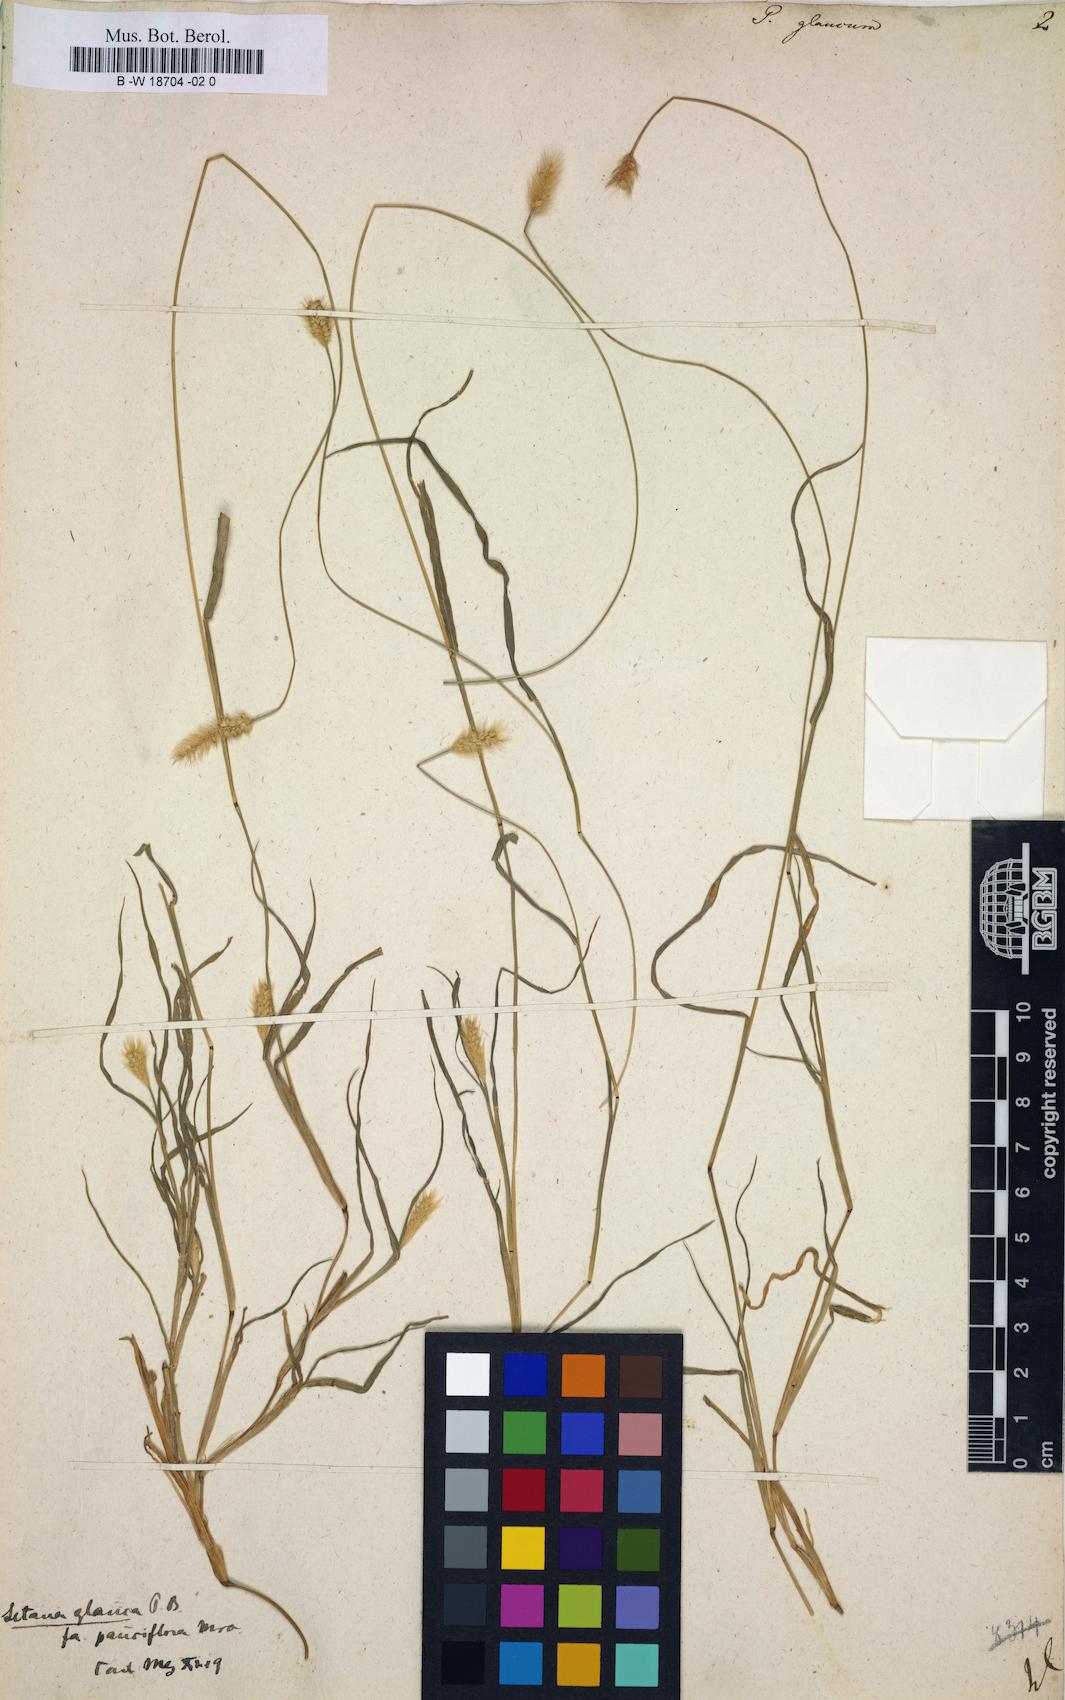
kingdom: Plantae
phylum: Tracheophyta
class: Liliopsida
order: Poales
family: Poaceae
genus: Panicum
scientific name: Panicum glaucum
